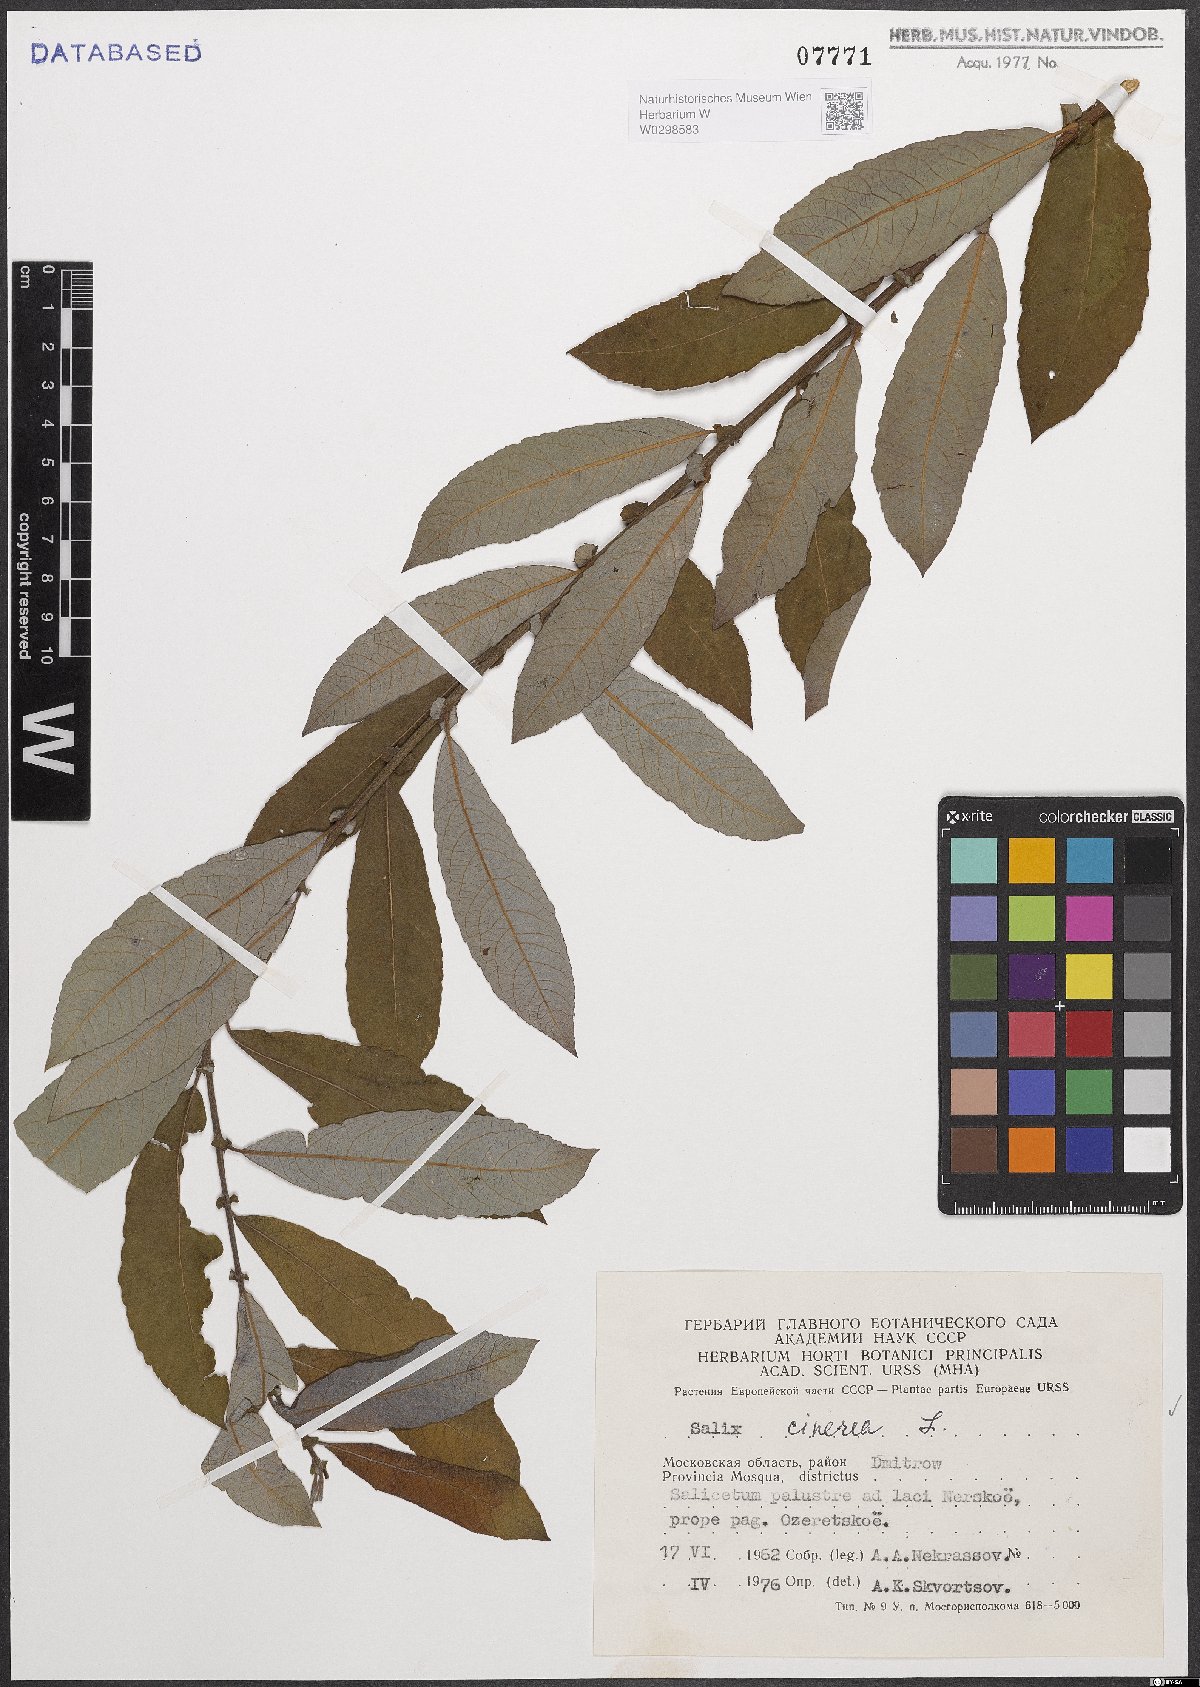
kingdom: Plantae
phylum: Tracheophyta
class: Magnoliopsida
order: Malpighiales
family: Salicaceae
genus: Salix
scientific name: Salix cinerea
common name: Common sallow
